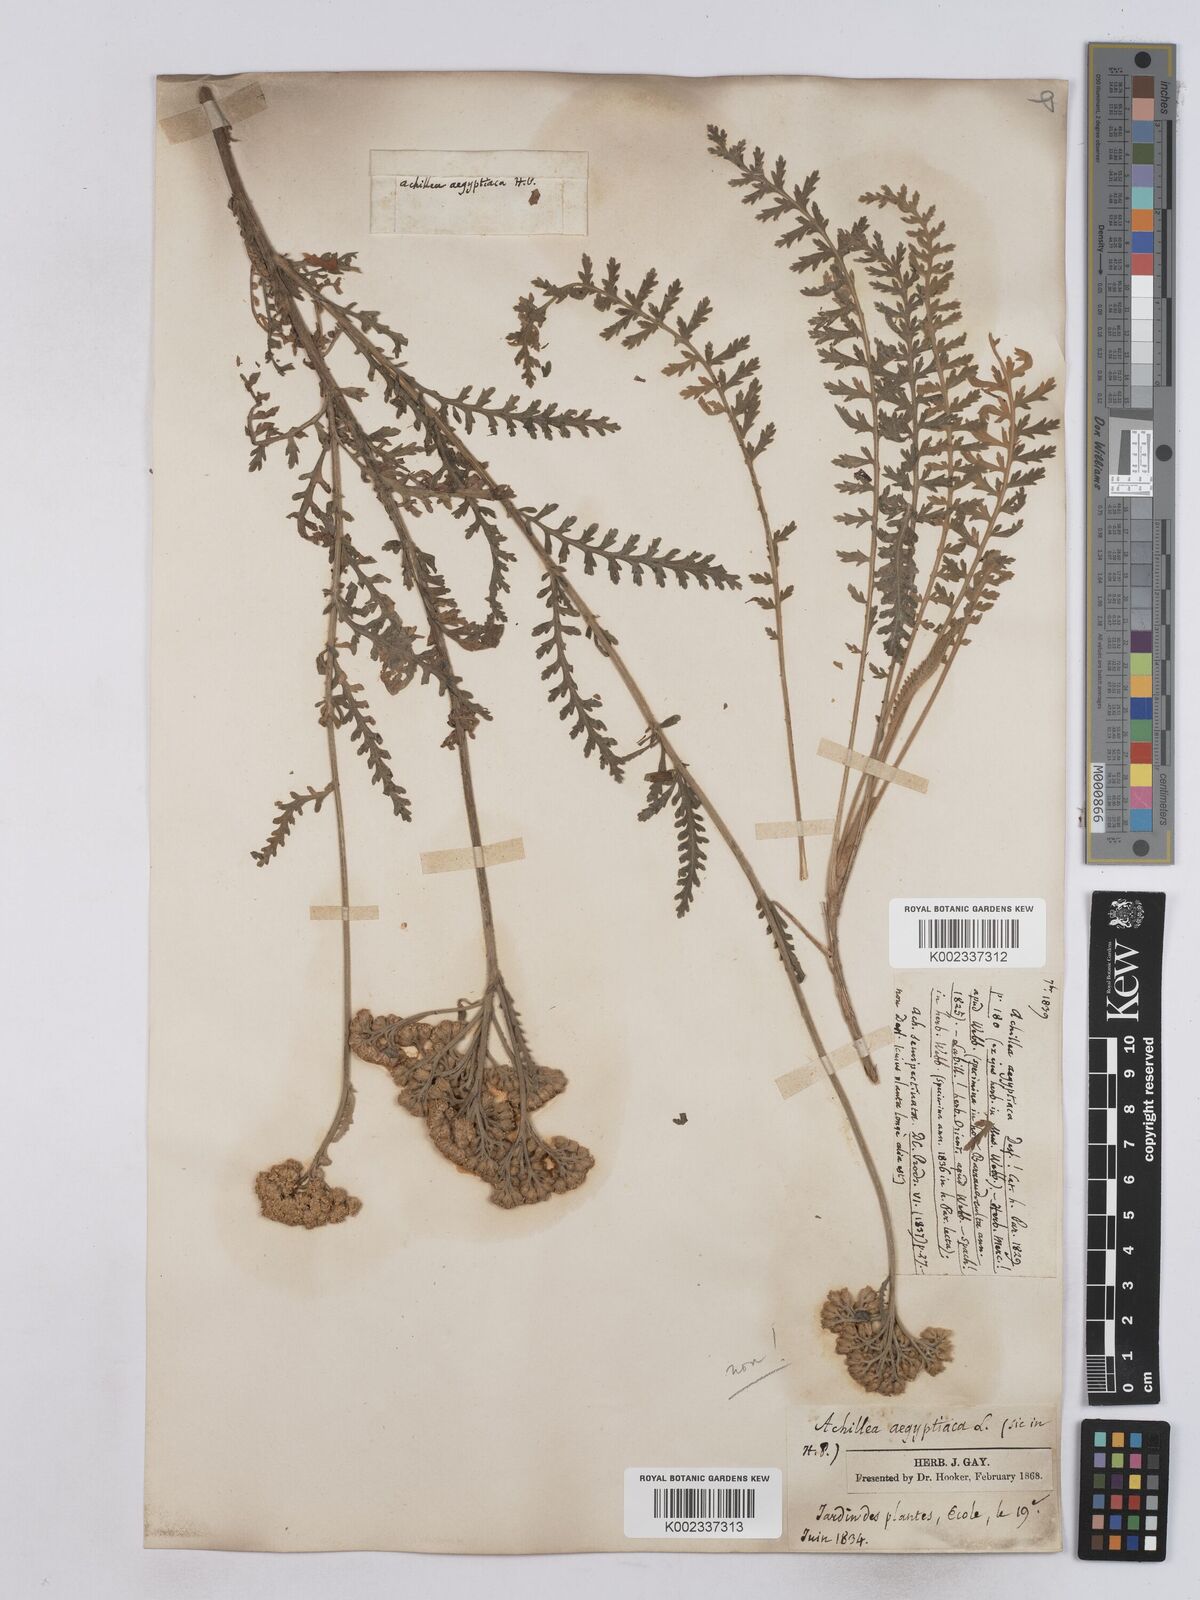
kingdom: Plantae
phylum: Tracheophyta
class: Magnoliopsida
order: Asterales
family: Asteraceae
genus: Achillea
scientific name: Achillea aegyptiaca
